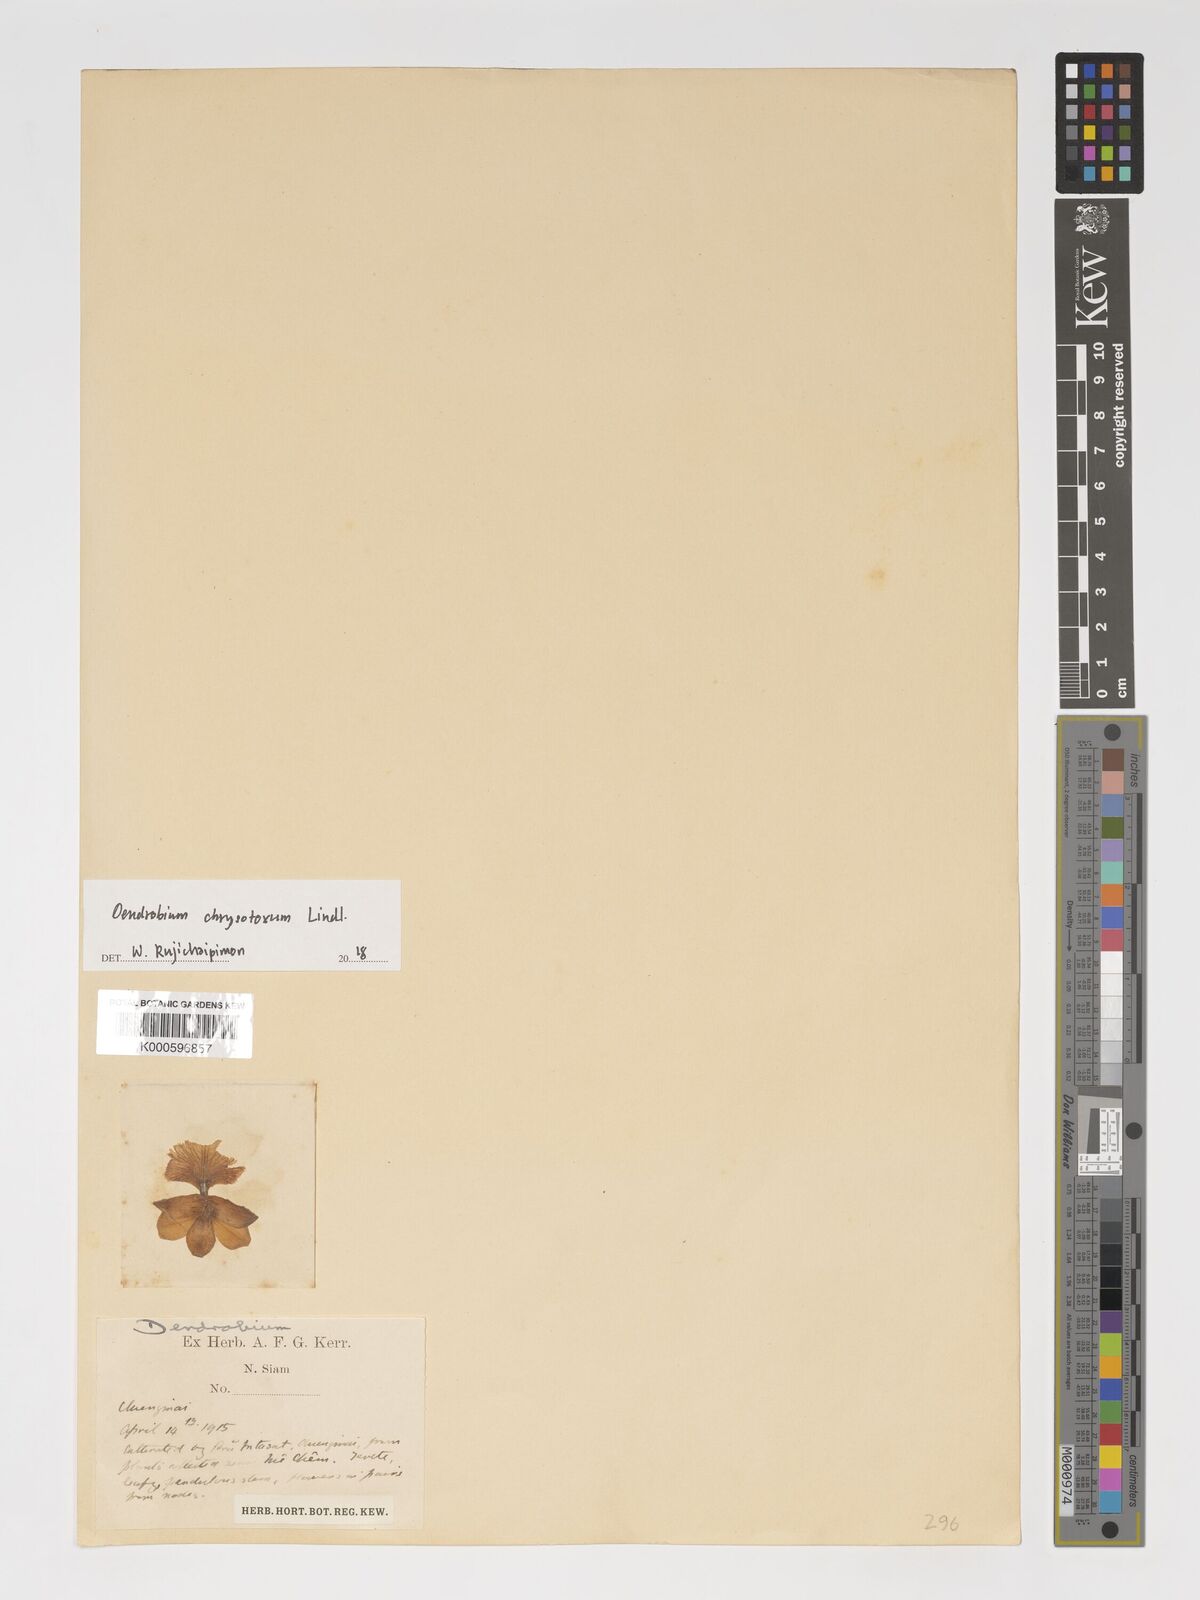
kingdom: Plantae
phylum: Tracheophyta
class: Liliopsida
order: Asparagales
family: Orchidaceae
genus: Dendrobium
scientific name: Dendrobium
